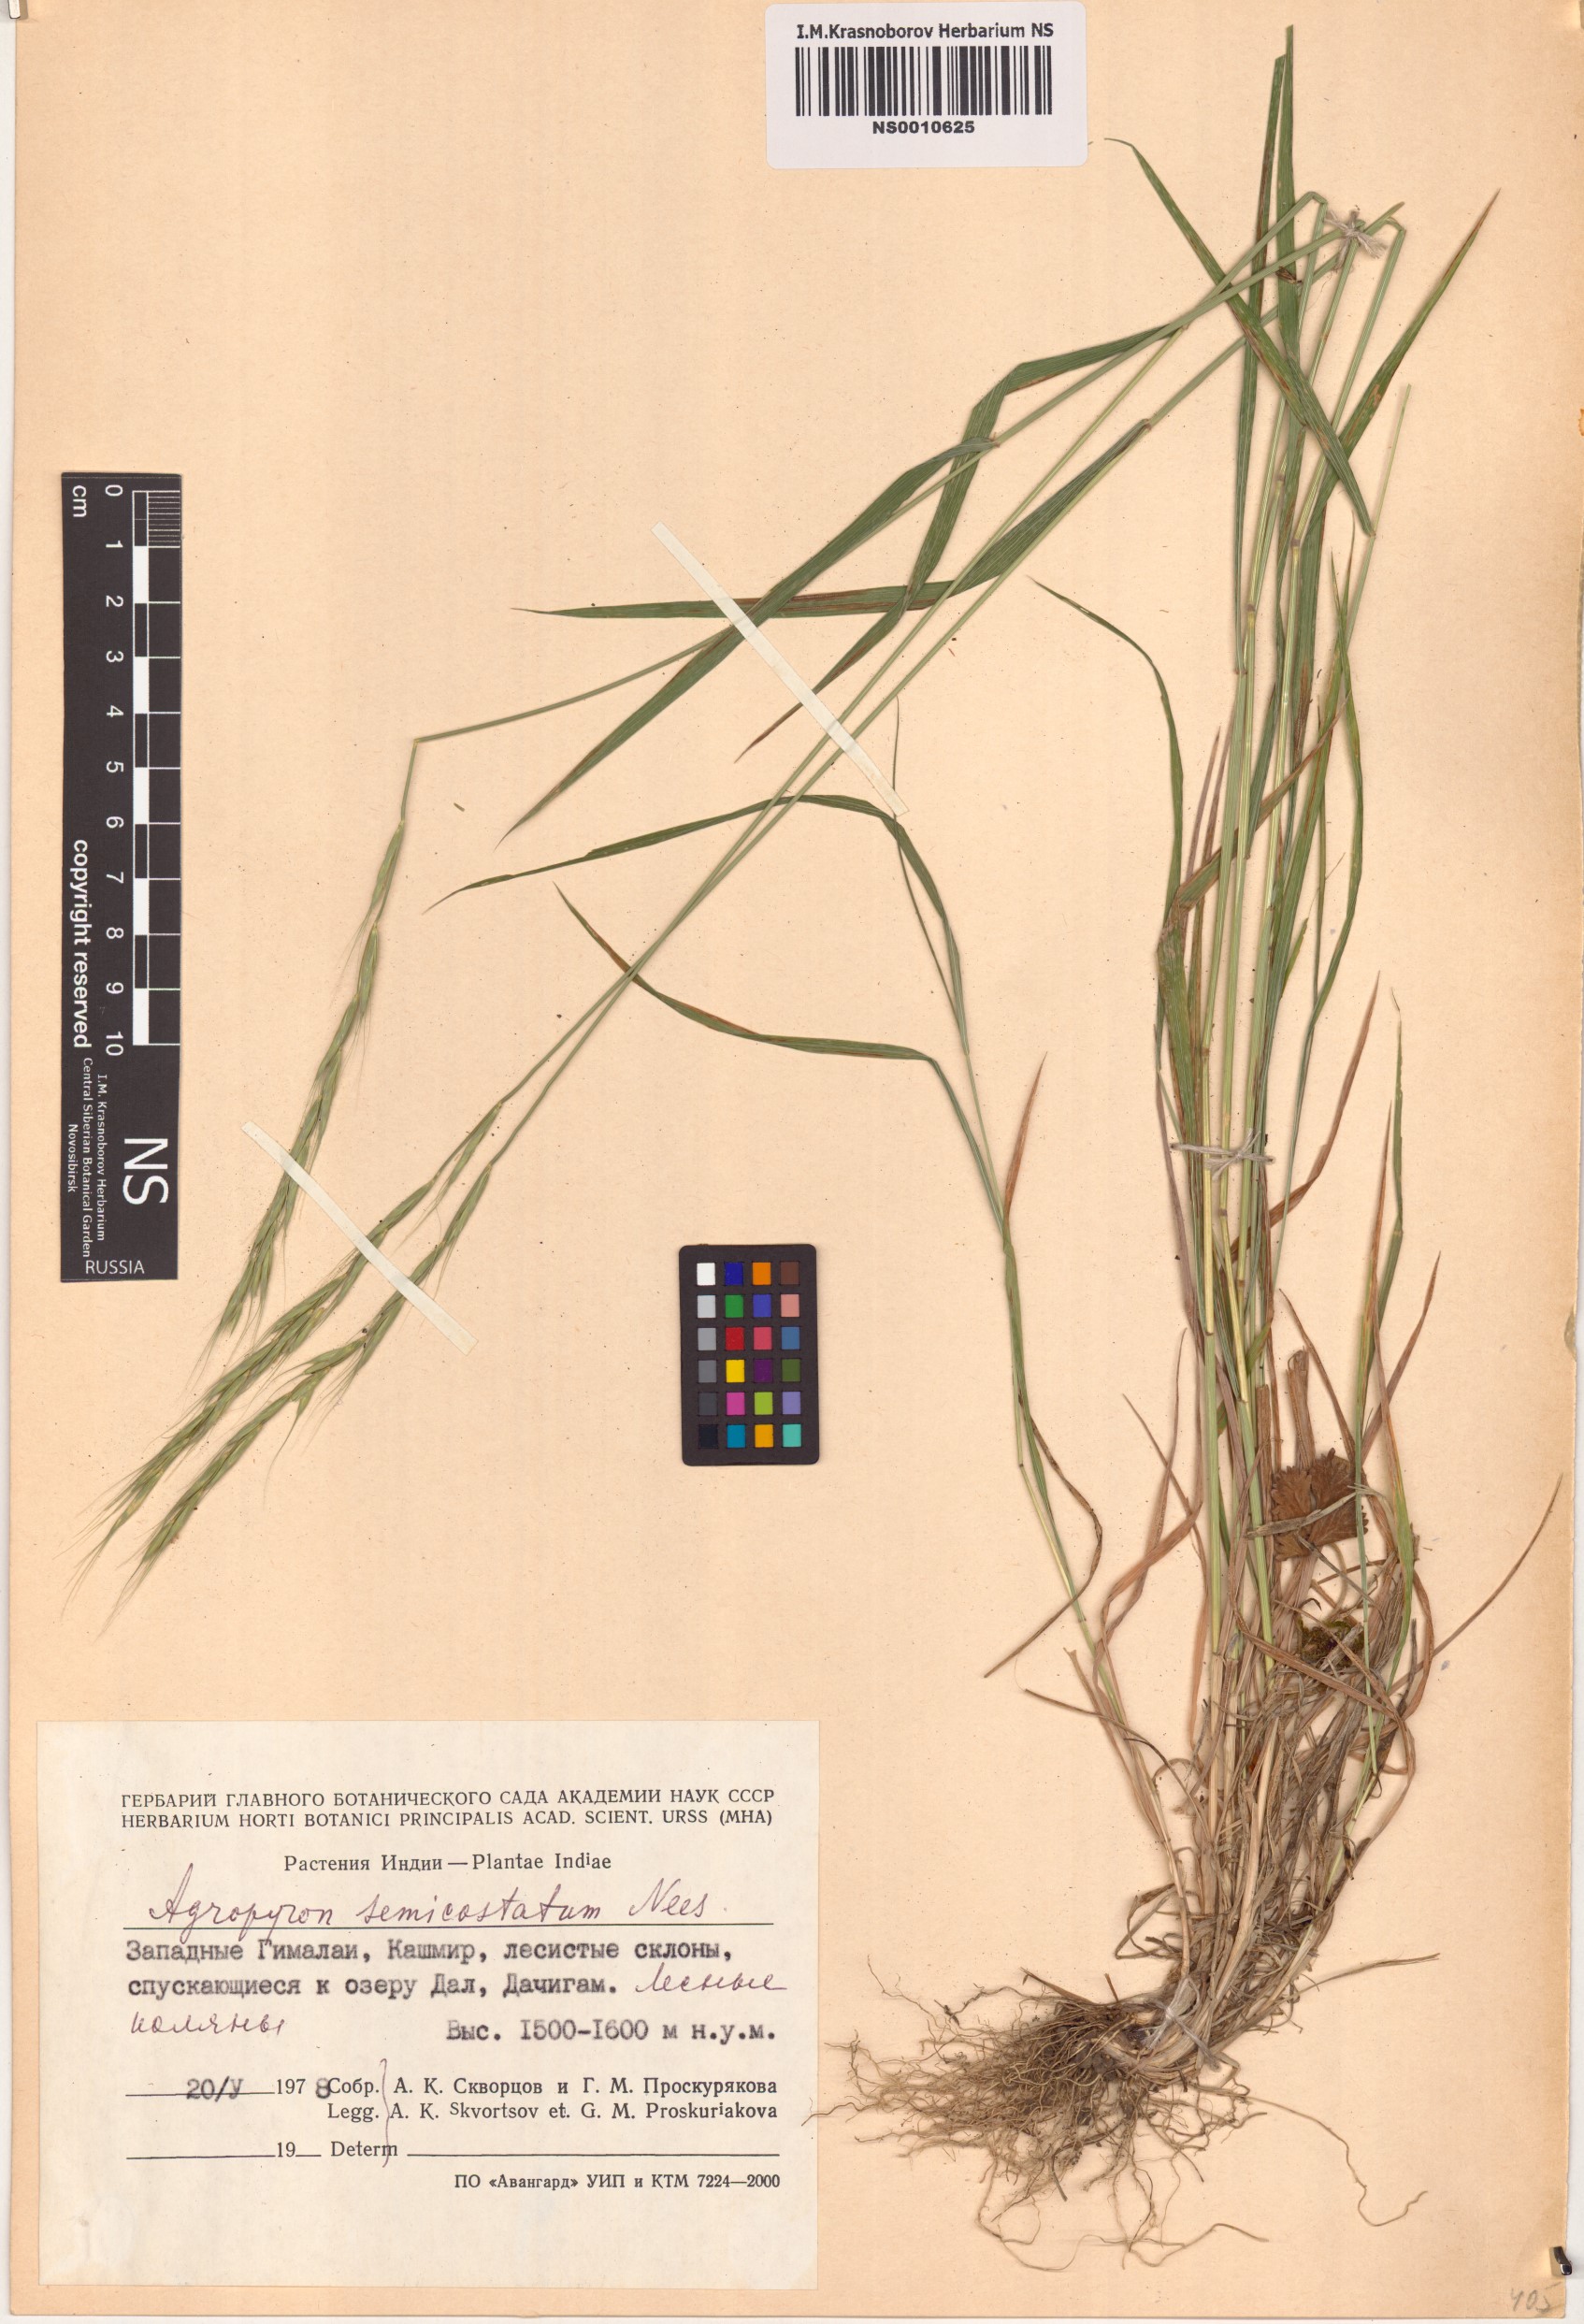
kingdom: Plantae
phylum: Tracheophyta
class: Liliopsida
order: Poales
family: Poaceae
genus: Elymus
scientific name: Elymus semicostatus
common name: Drooping wildrye
